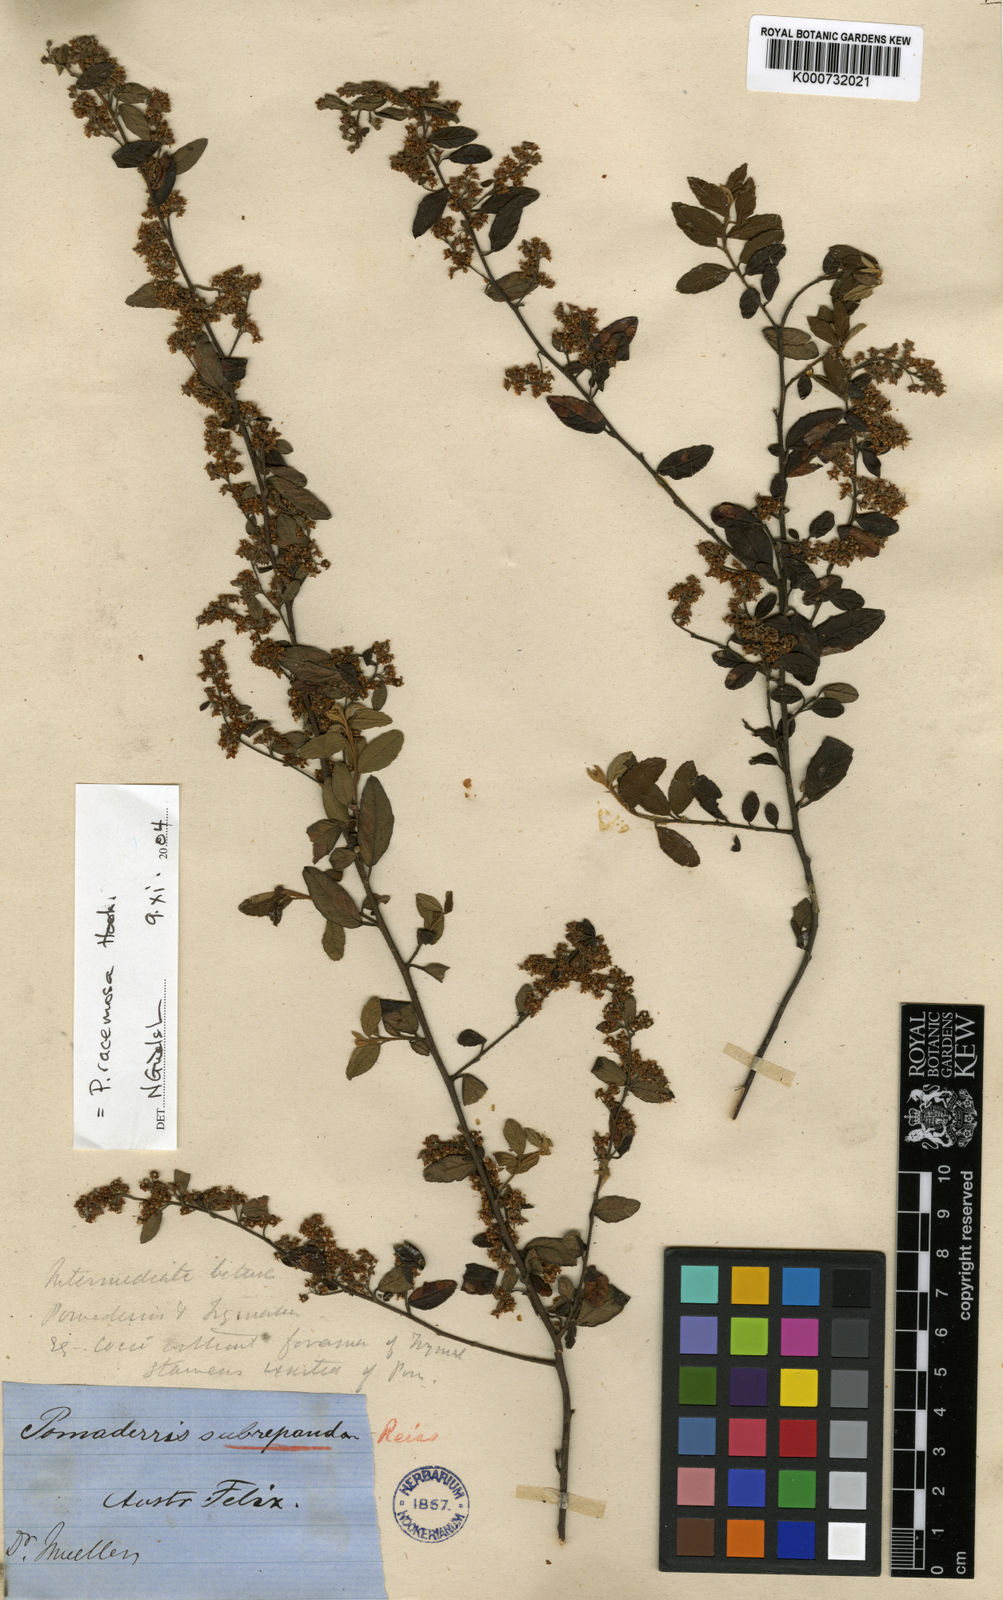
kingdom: Plantae
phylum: Tracheophyta
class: Magnoliopsida
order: Rosales
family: Rhamnaceae
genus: Pomaderris
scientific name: Pomaderris
